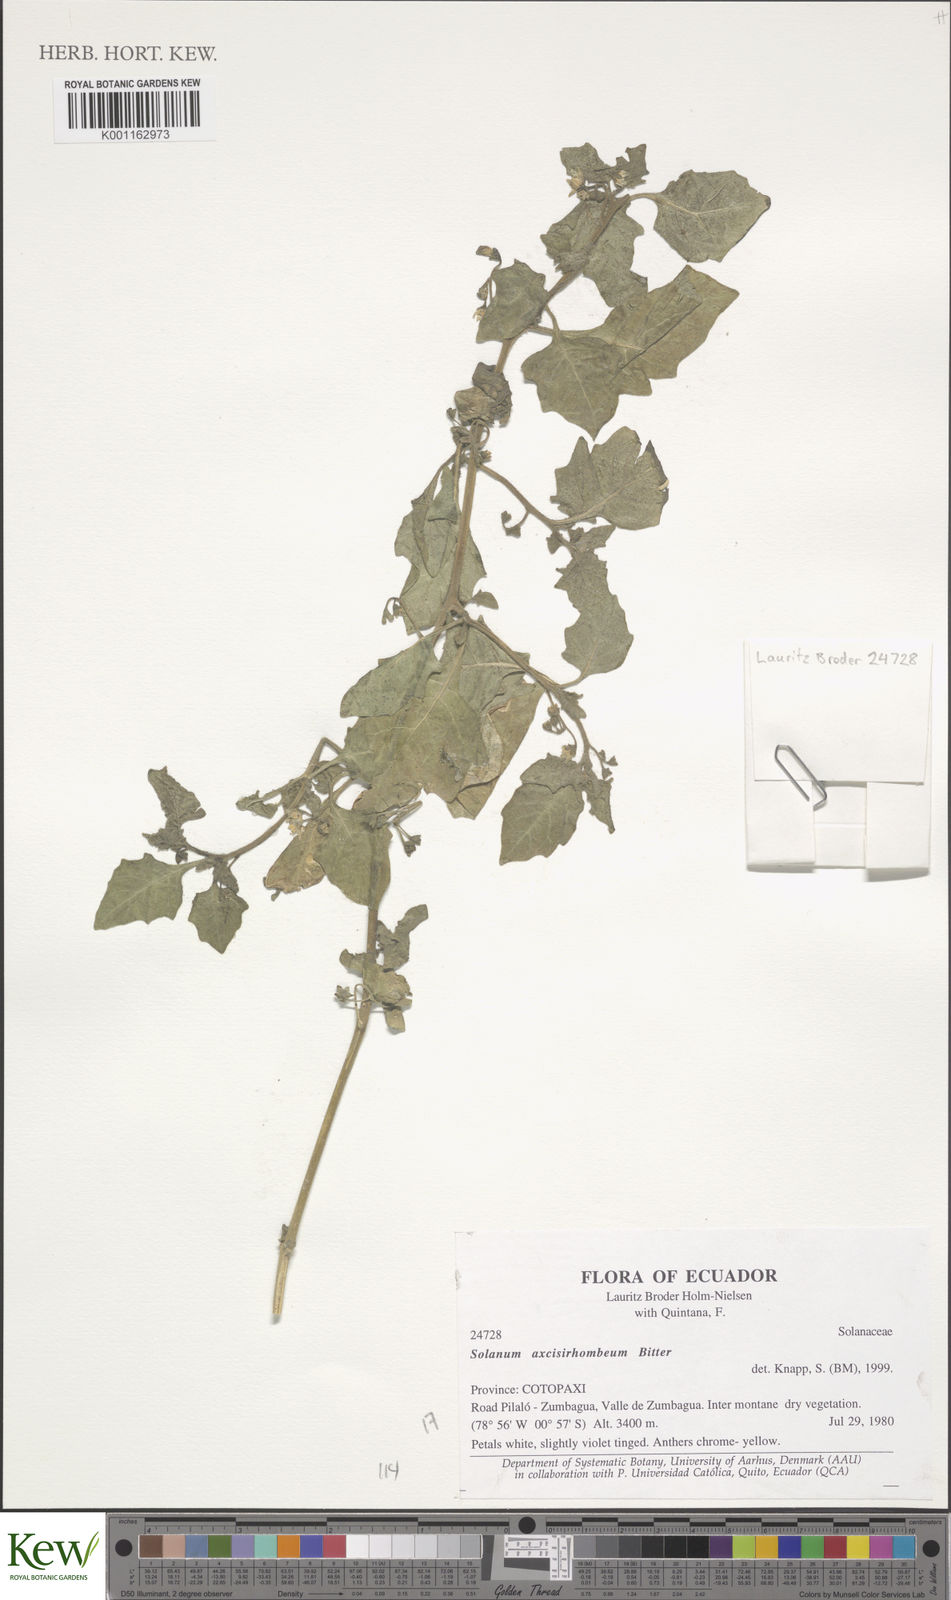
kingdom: Plantae
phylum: Tracheophyta
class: Magnoliopsida
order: Solanales
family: Solanaceae
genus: Solanum
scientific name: Solanum grandidentatum
